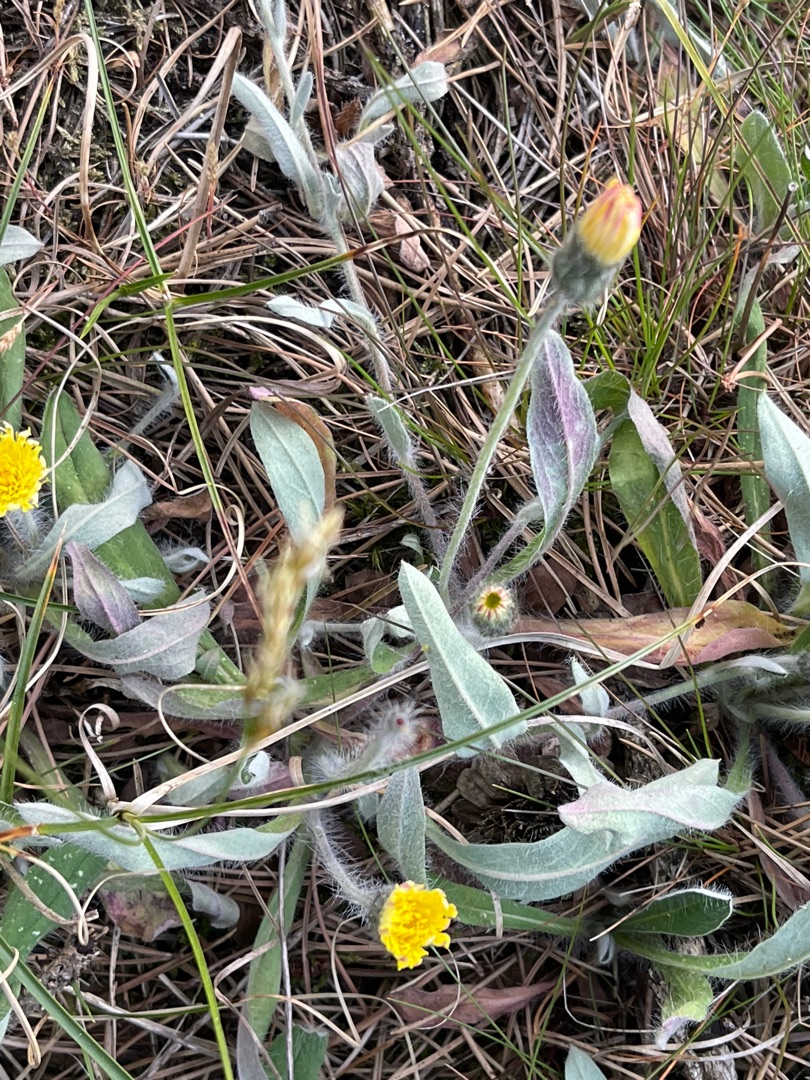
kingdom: Plantae
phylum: Tracheophyta
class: Magnoliopsida
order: Asterales
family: Asteraceae
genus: Pilosella
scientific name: Pilosella officinarum
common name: Håret høgeurt
